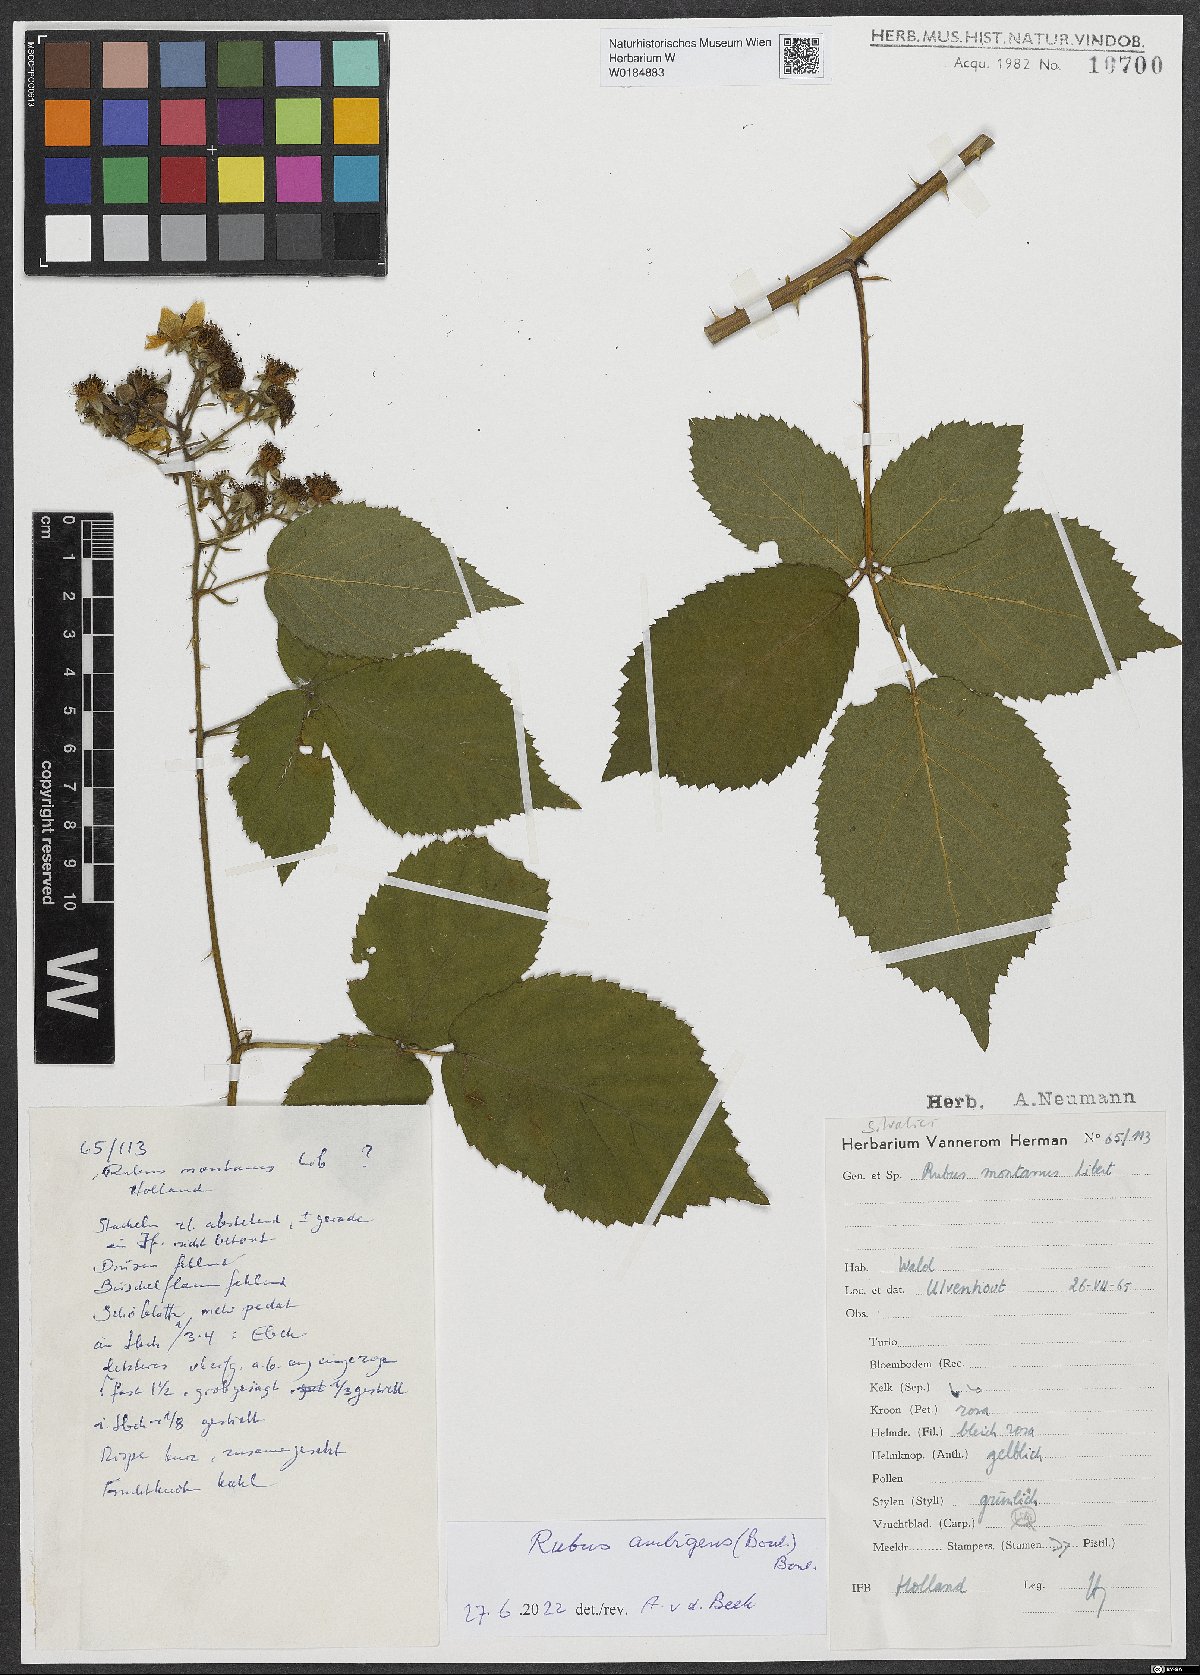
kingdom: Plantae
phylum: Tracheophyta
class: Magnoliopsida
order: Rosales
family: Rosaceae
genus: Rubus
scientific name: Rubus ambigens
